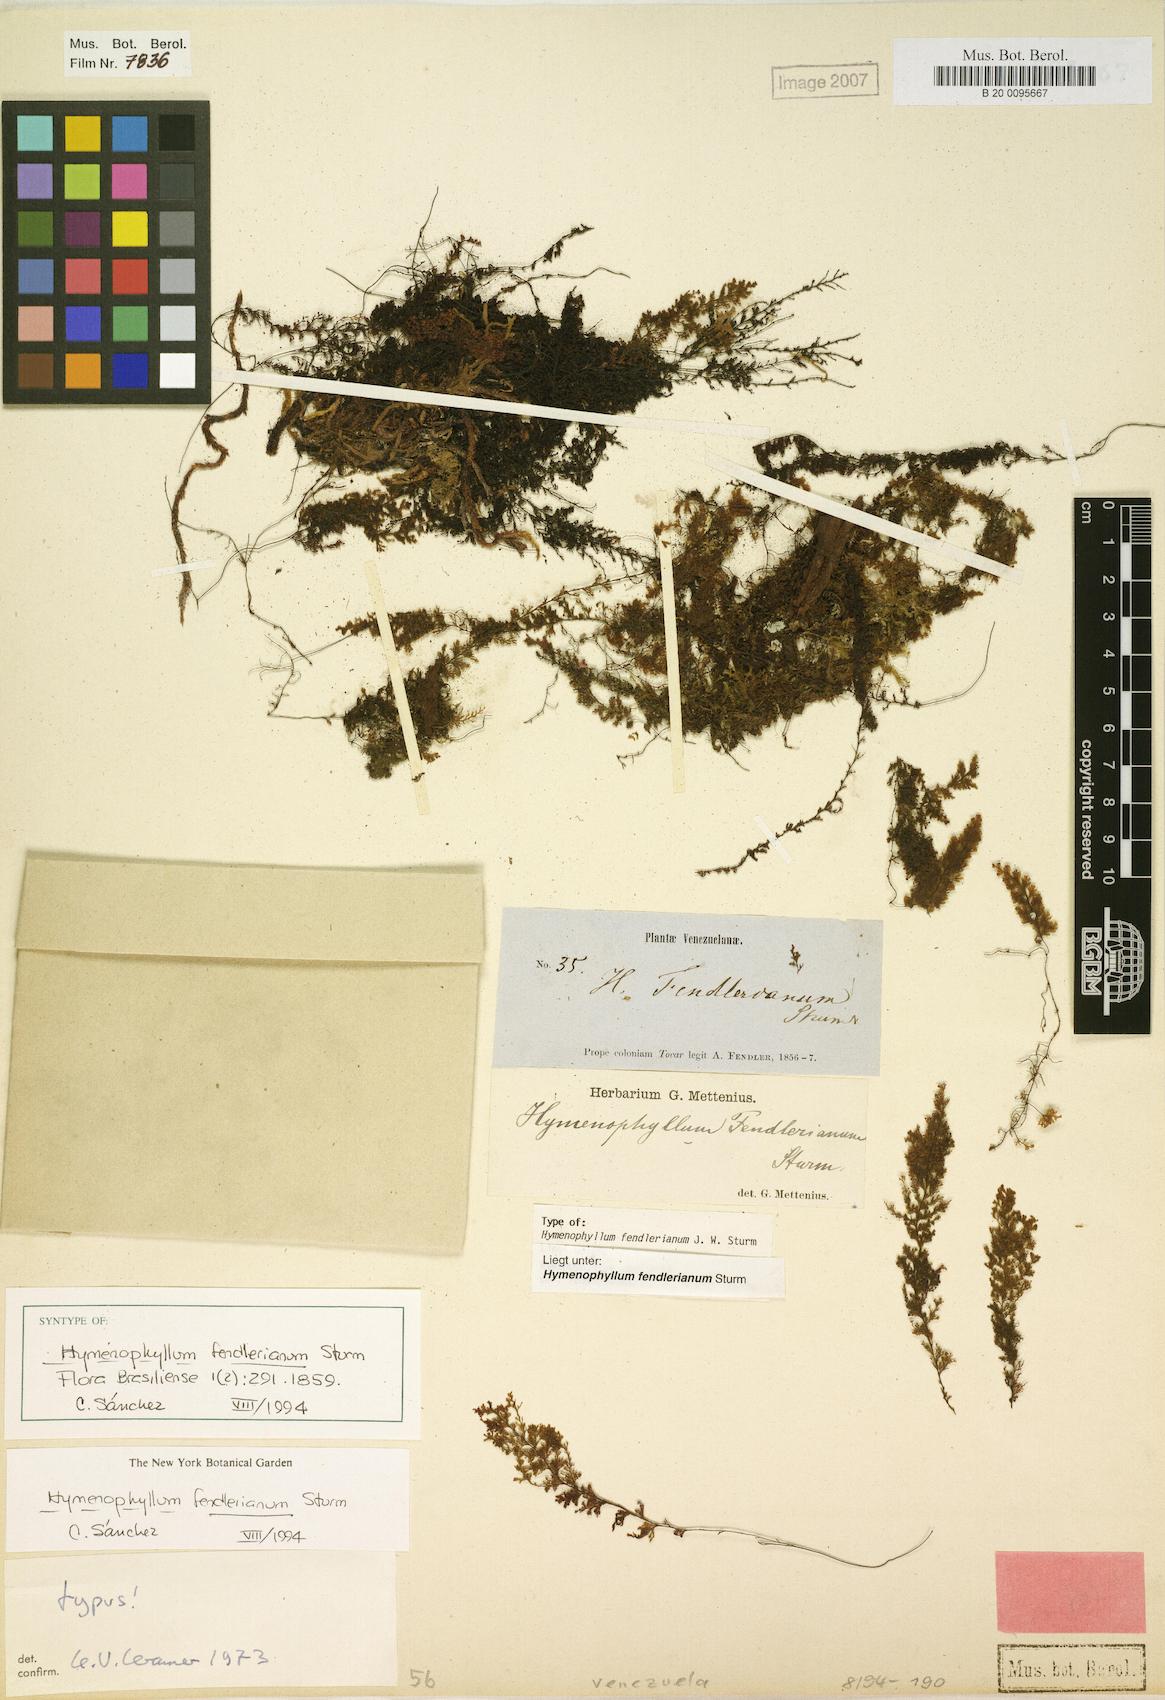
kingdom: Plantae
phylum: Tracheophyta
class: Polypodiopsida
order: Hymenophyllales
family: Hymenophyllaceae
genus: Hymenophyllum
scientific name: Hymenophyllum fendlerianum
